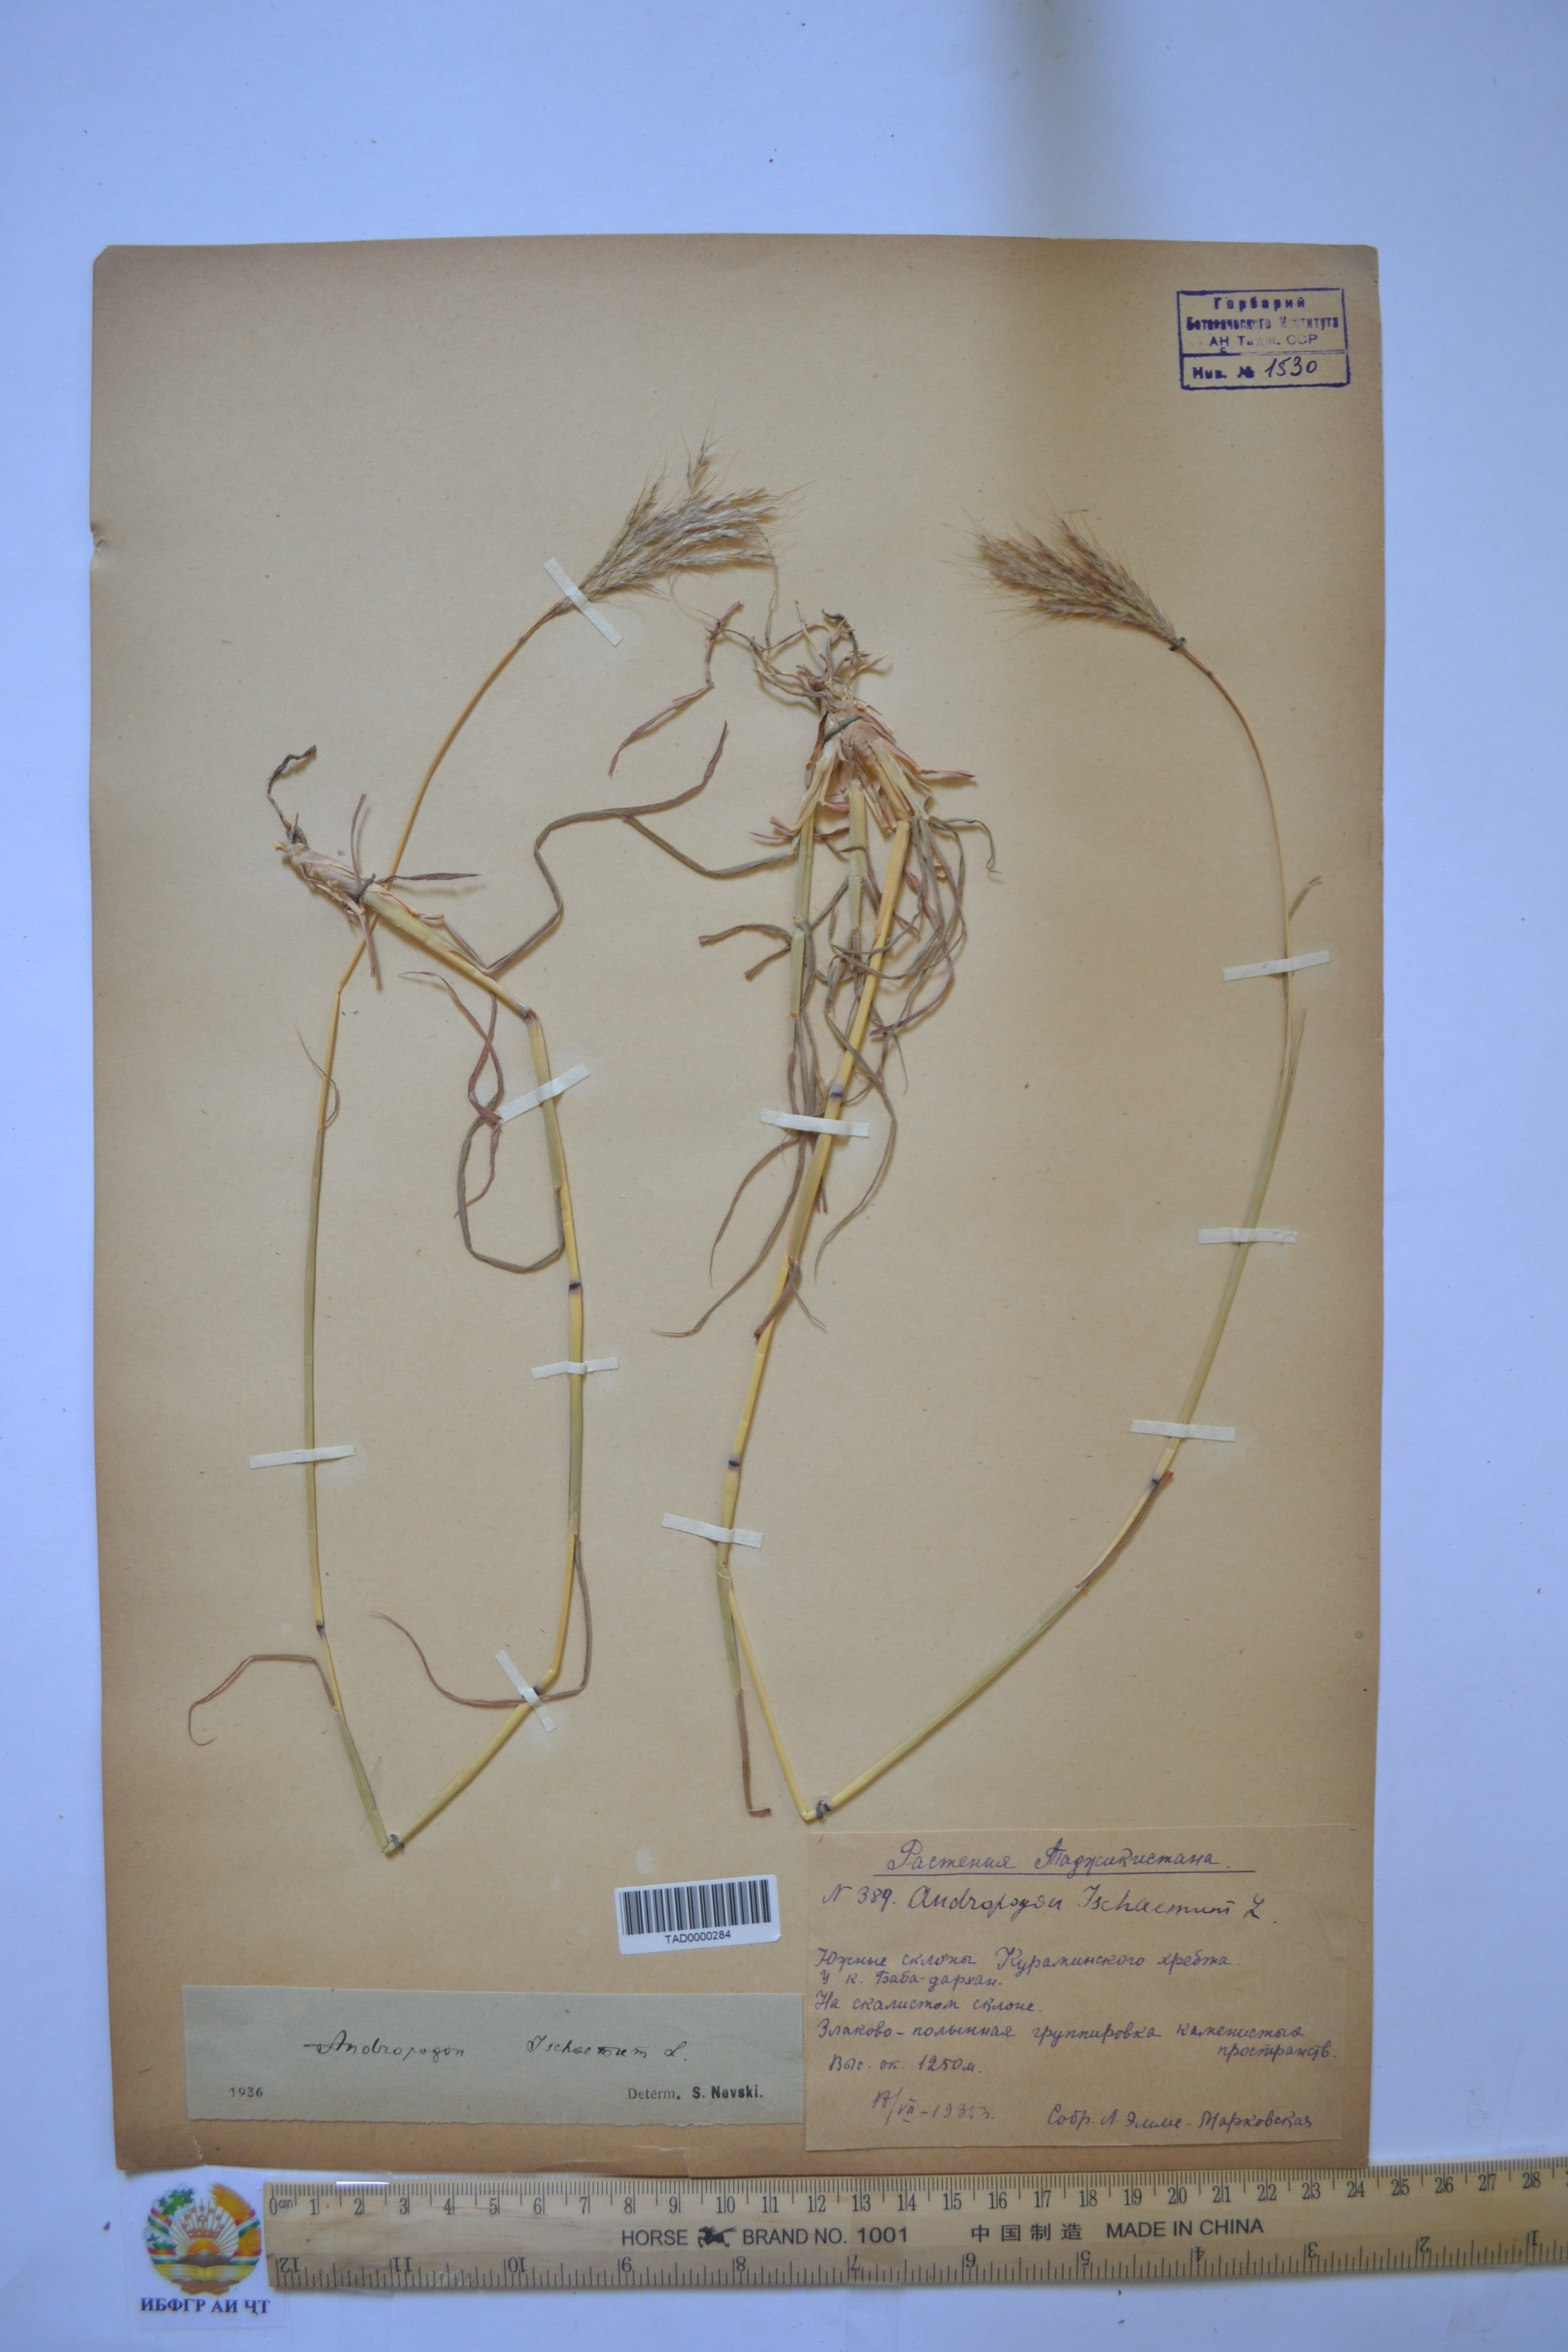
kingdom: Plantae
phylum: Tracheophyta
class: Liliopsida
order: Poales
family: Poaceae
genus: Bothriochloa
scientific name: Bothriochloa ischaemum
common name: Yellow bluestem
